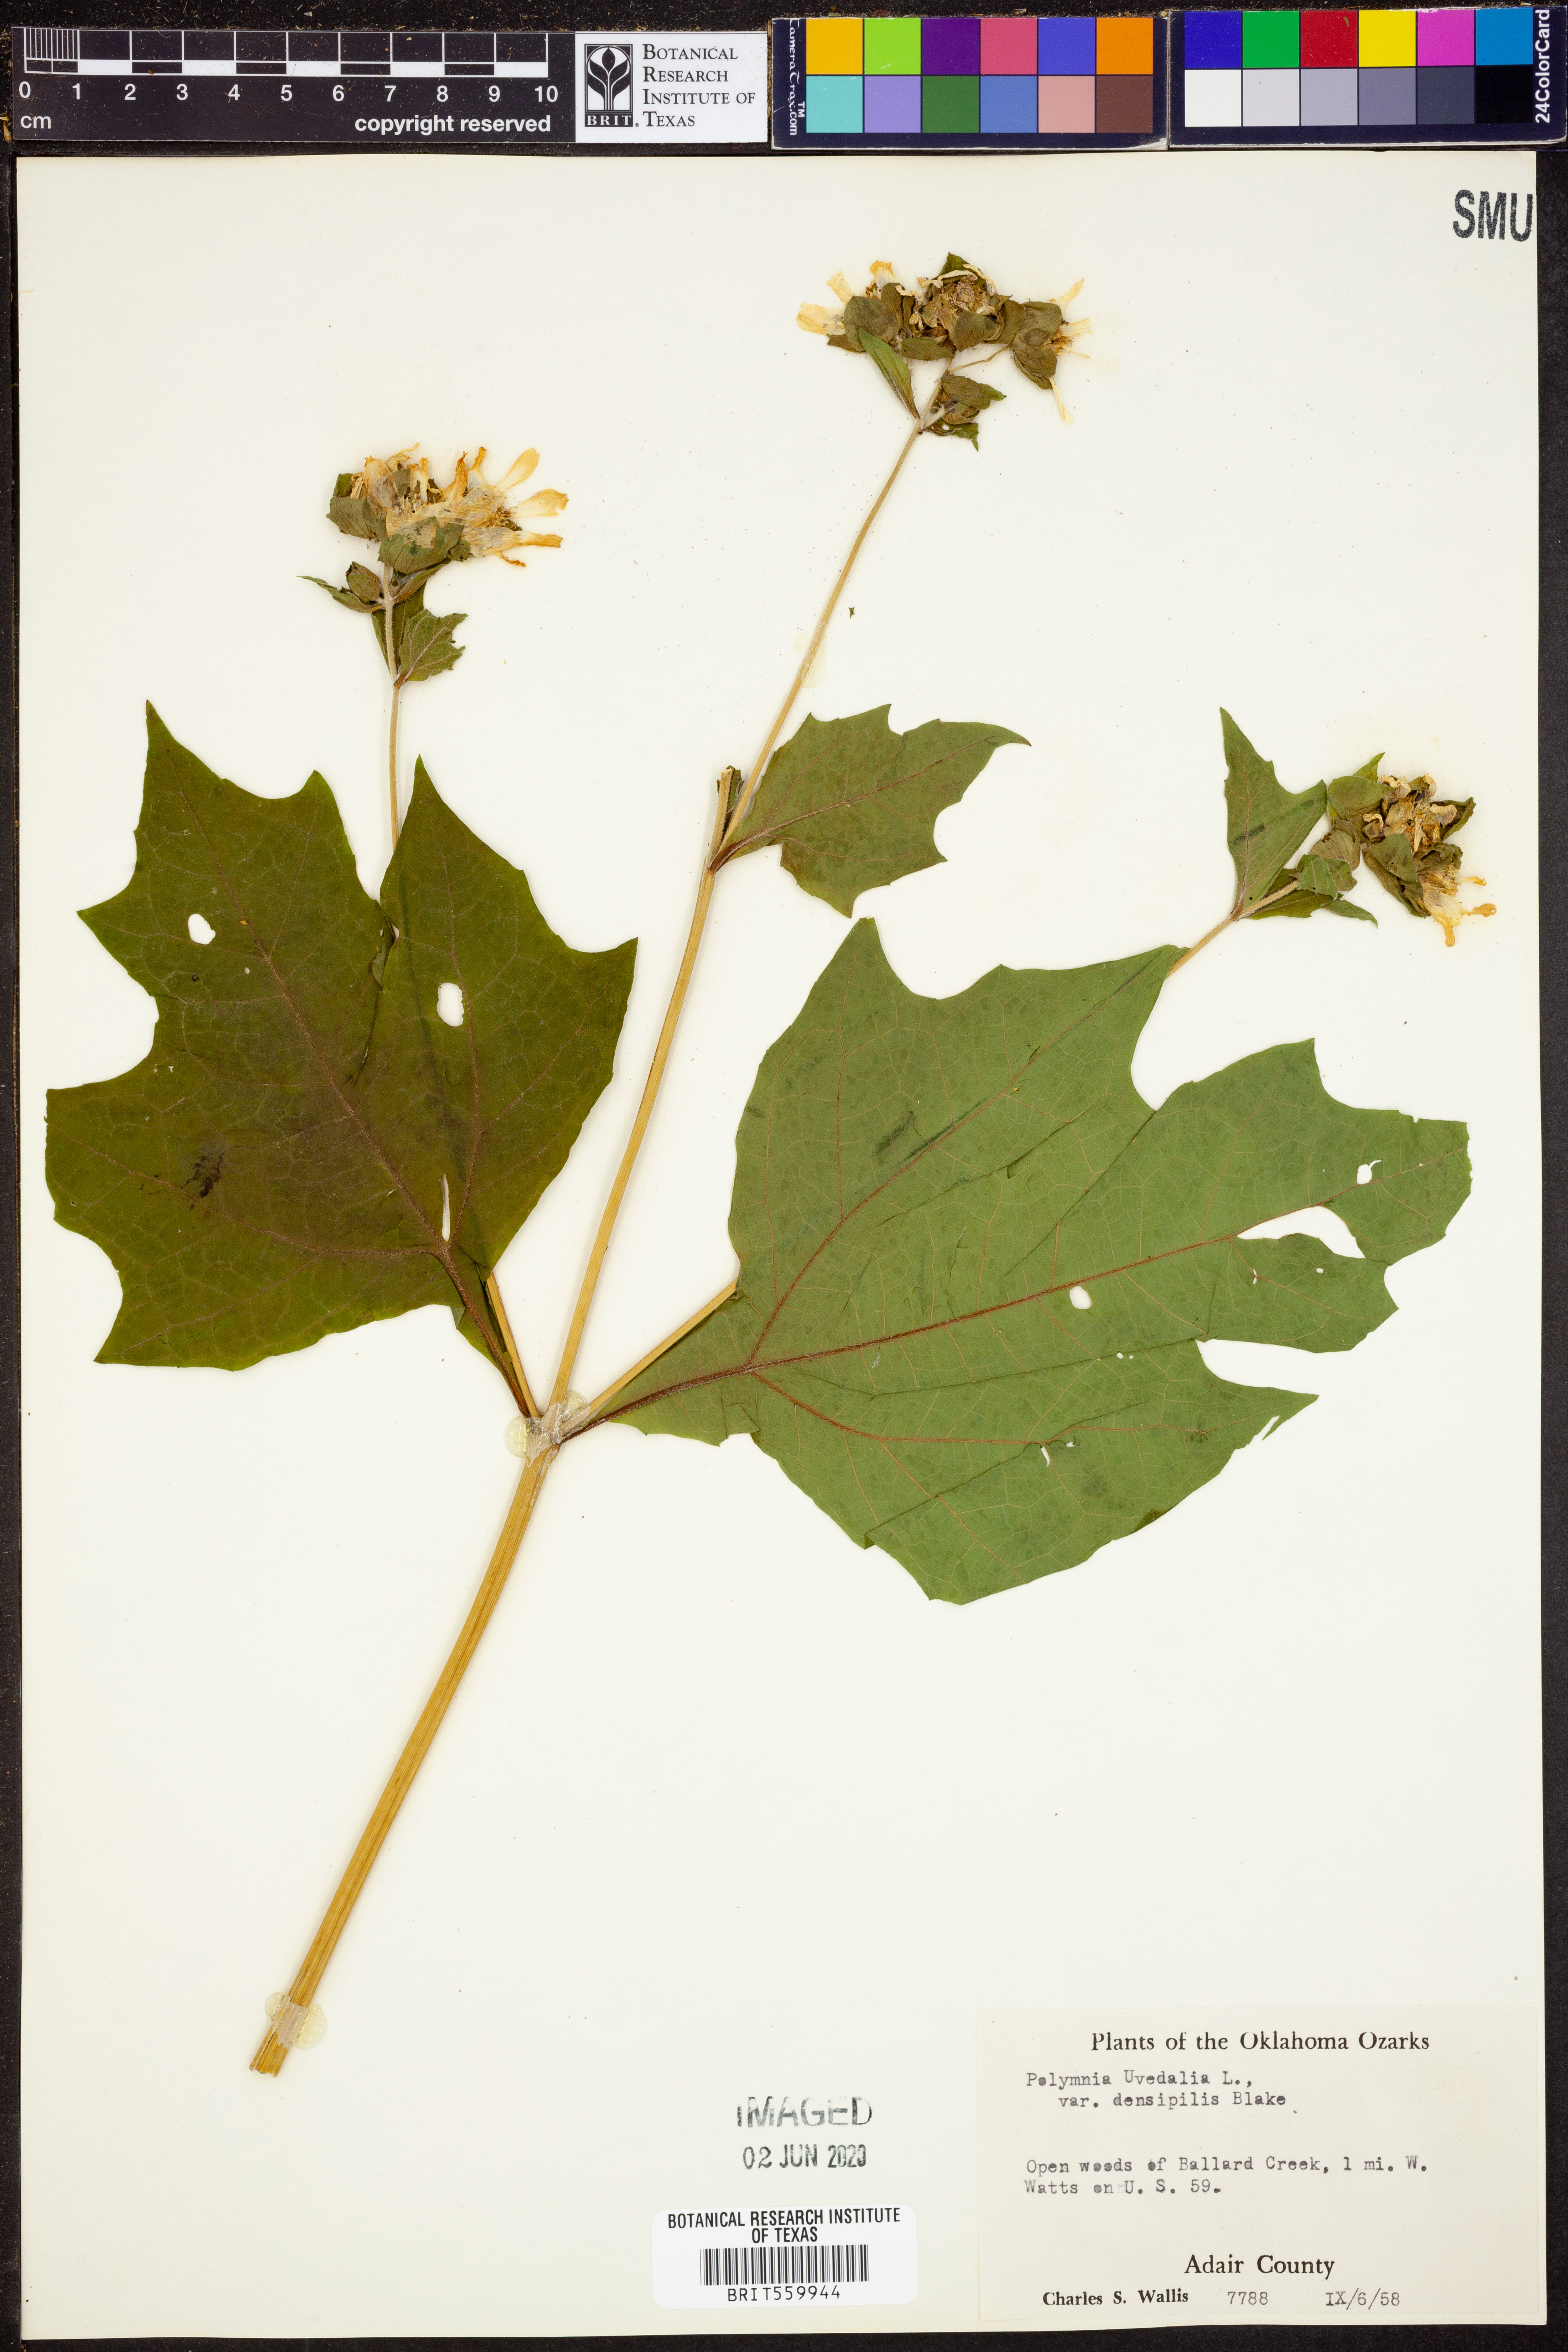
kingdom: Plantae
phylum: Tracheophyta
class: Magnoliopsida
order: Asterales
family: Asteraceae
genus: Smallanthus
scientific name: Smallanthus uvedalia
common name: Bear's-foot
